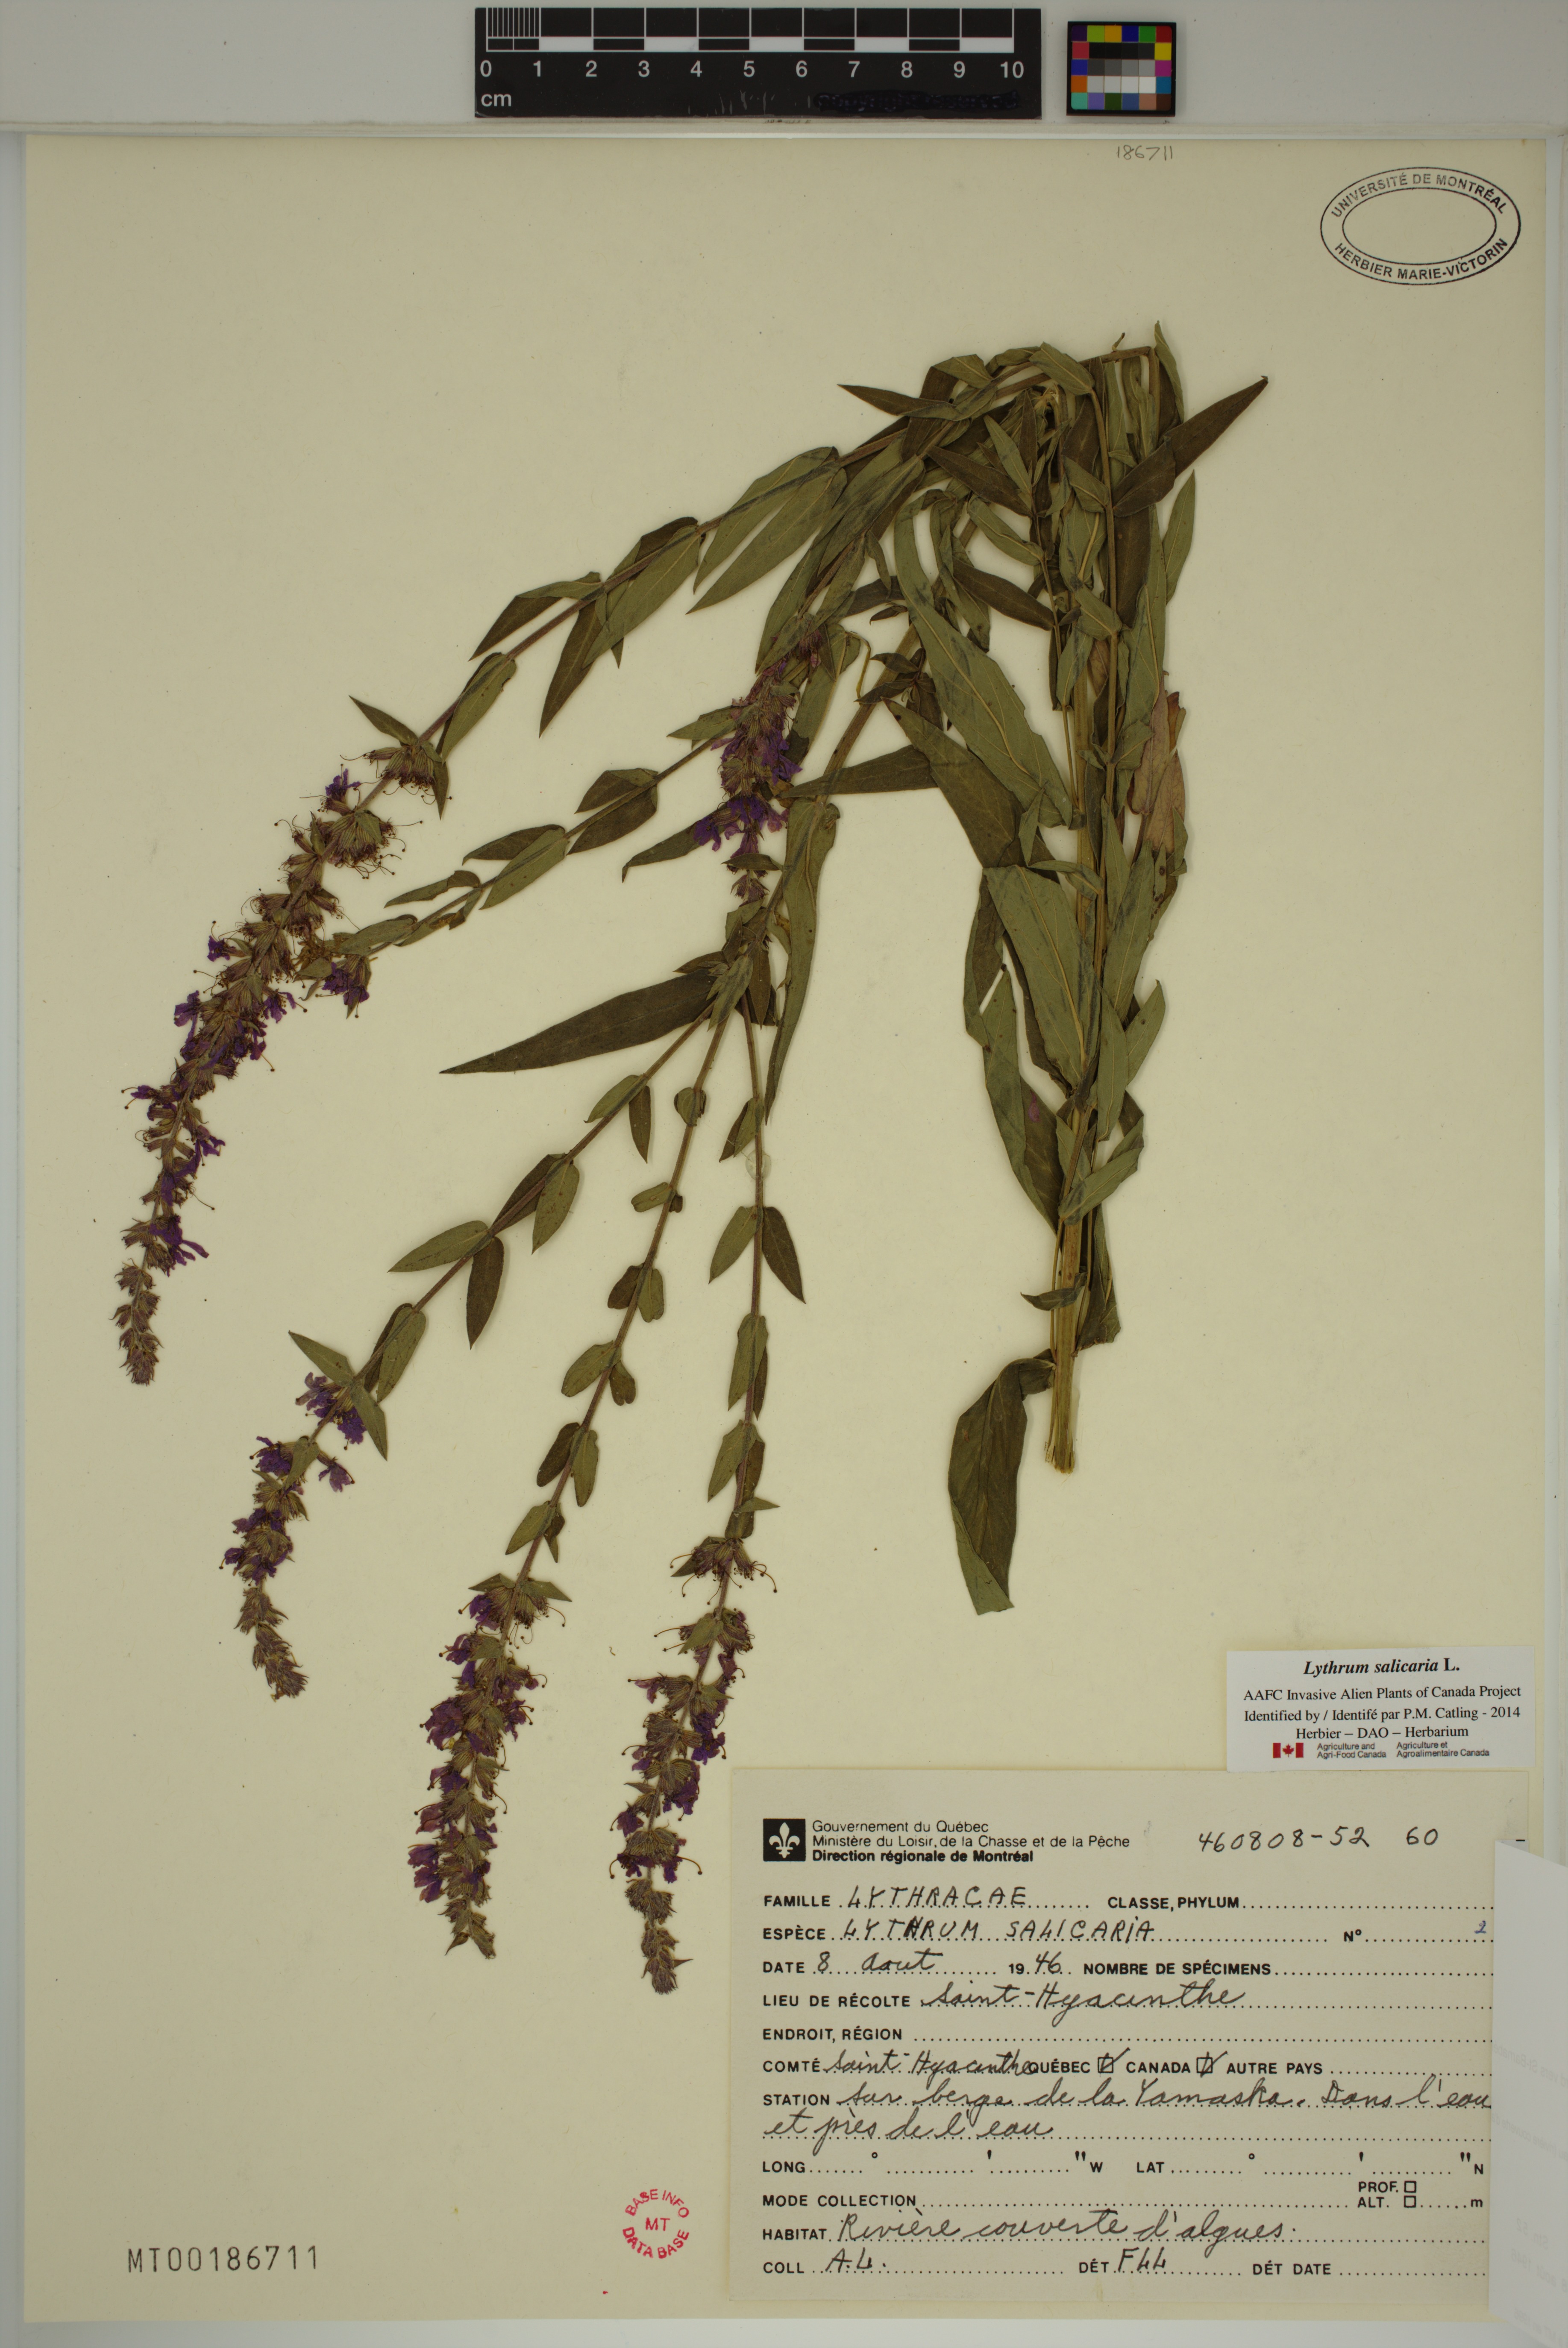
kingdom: Plantae
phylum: Tracheophyta
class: Magnoliopsida
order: Myrtales
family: Lythraceae
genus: Lythrum
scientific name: Lythrum salicaria
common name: Purple loosestrife
